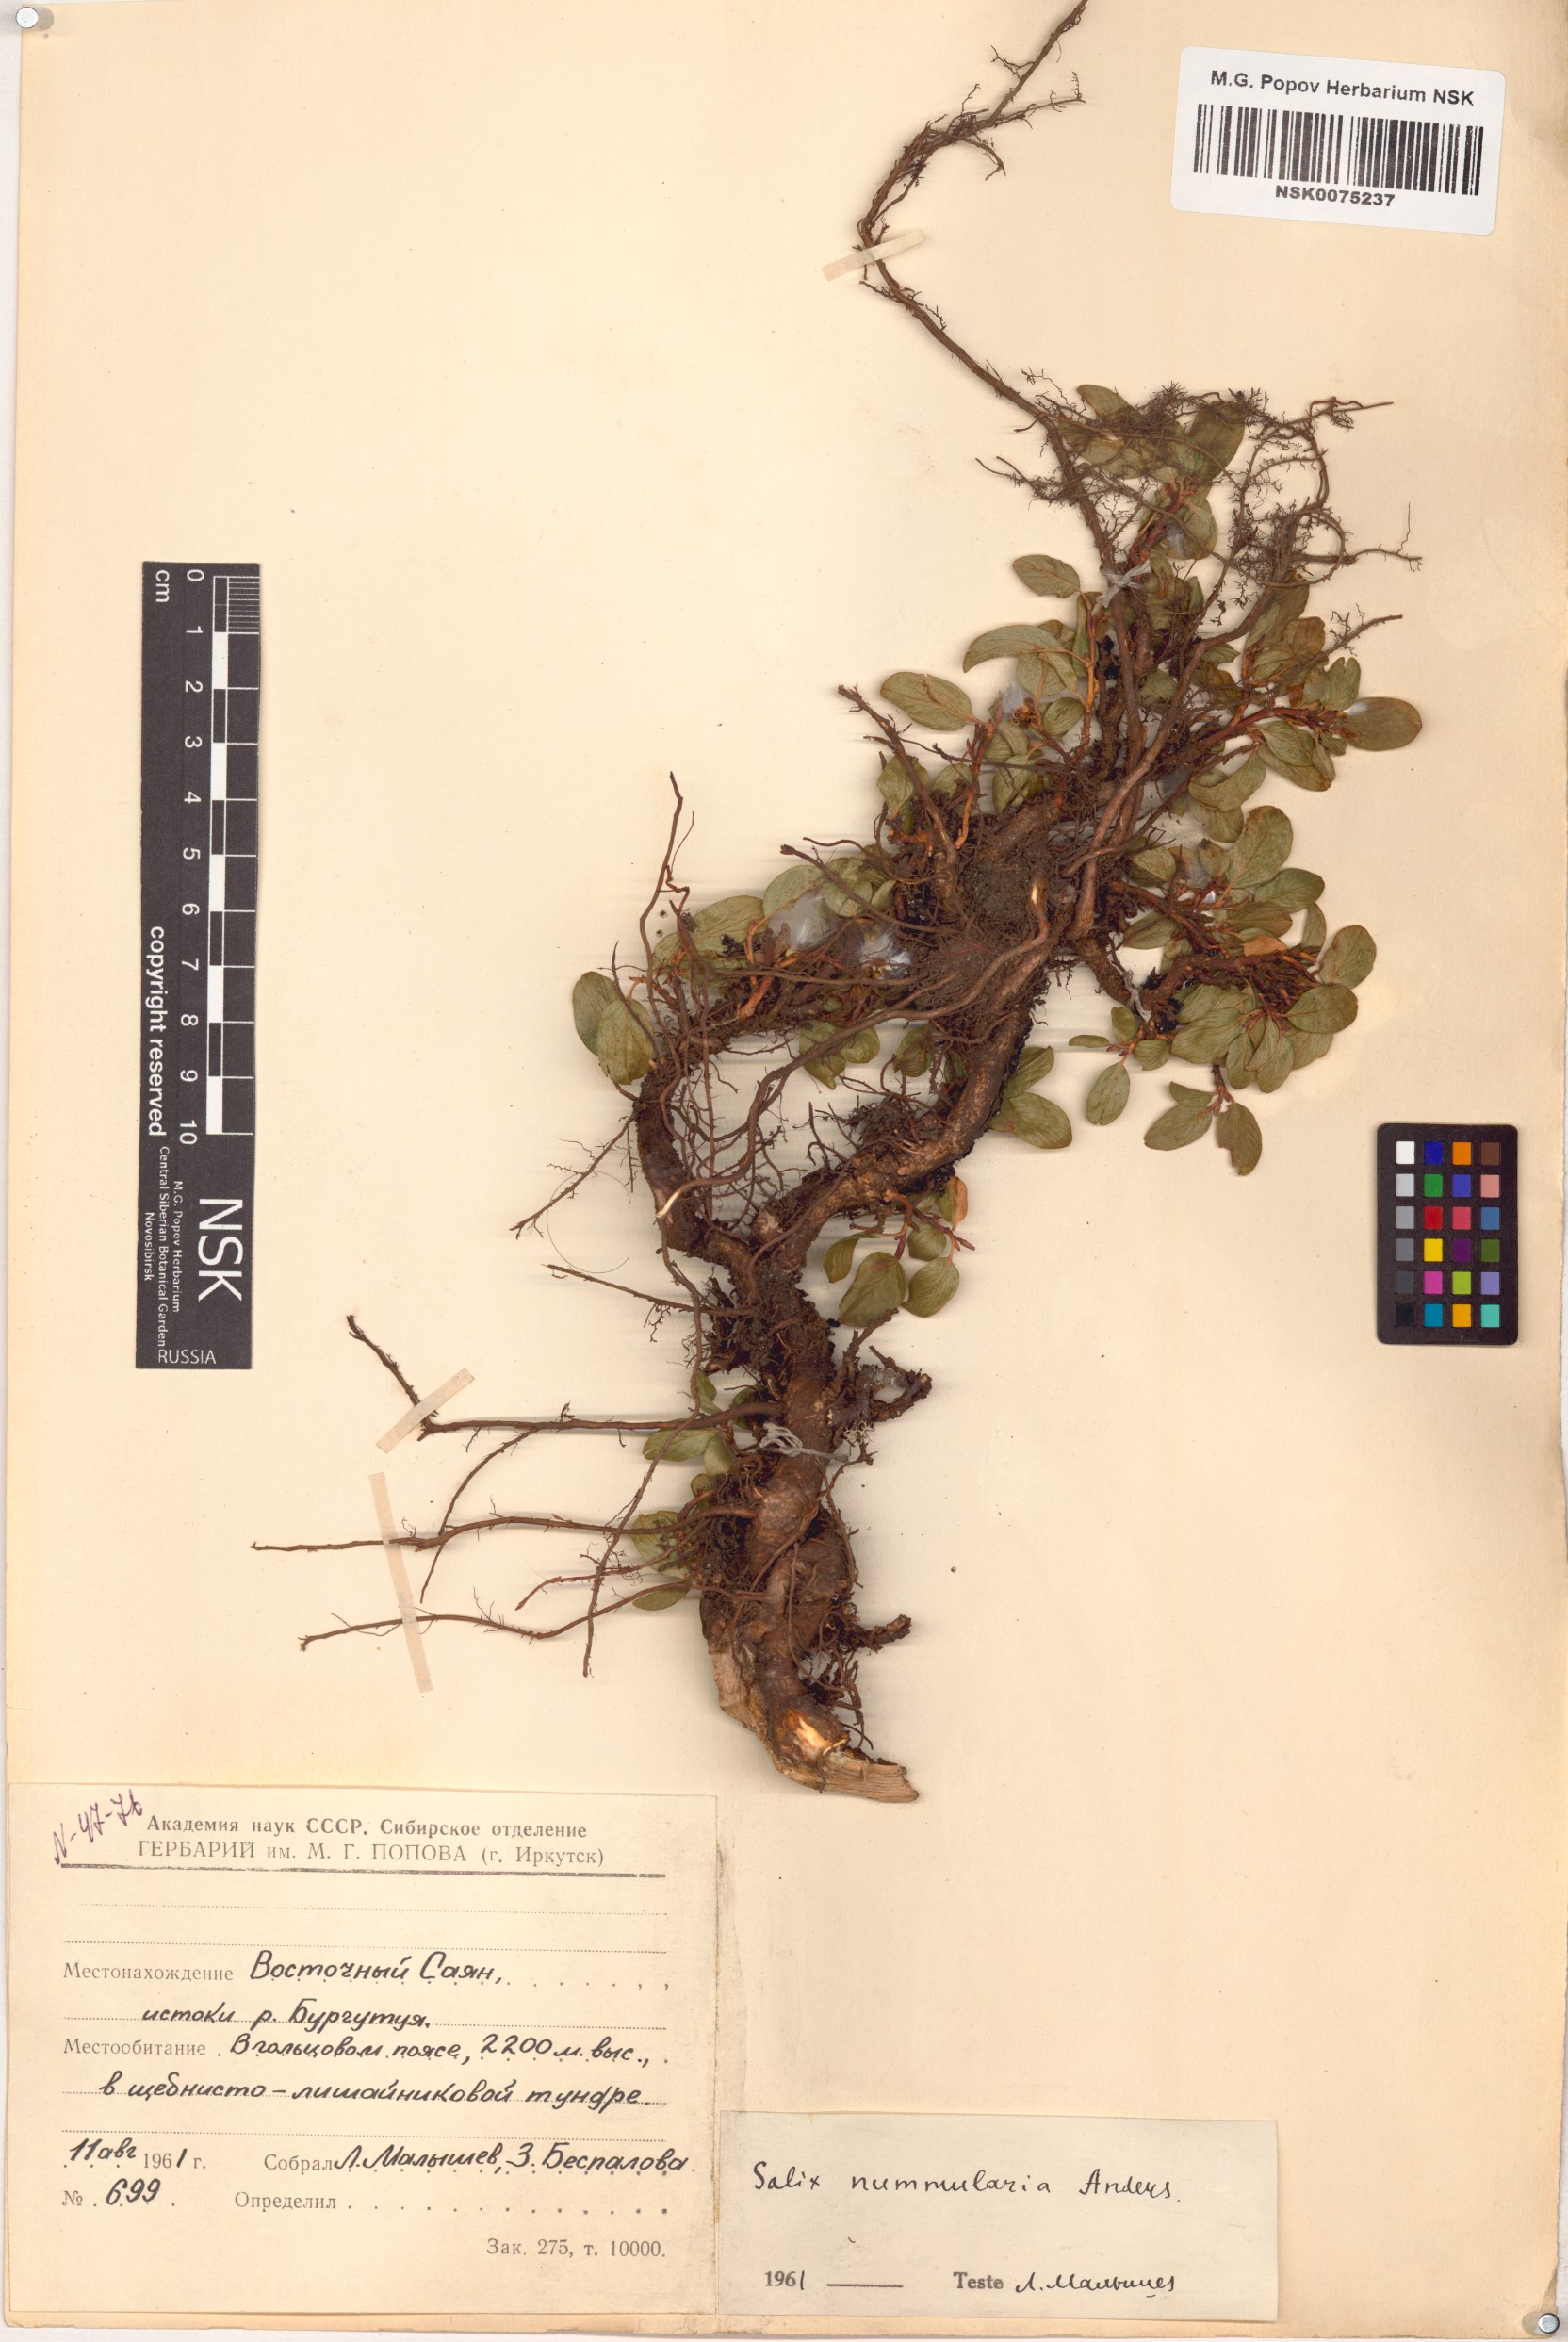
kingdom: Plantae
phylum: Tracheophyta
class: Magnoliopsida
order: Malpighiales
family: Salicaceae
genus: Salix
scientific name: Salix nummularia
